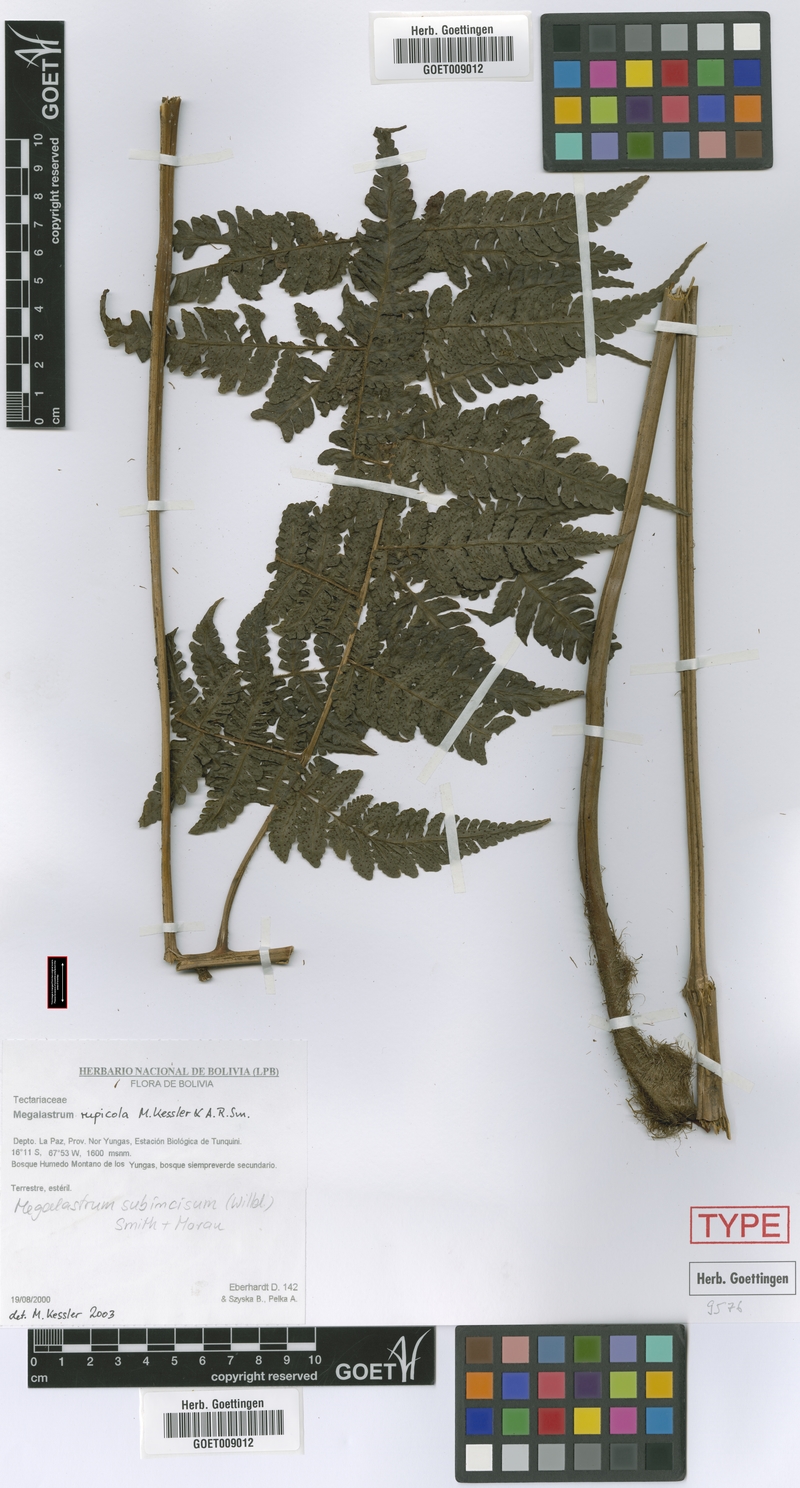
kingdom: Plantae
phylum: Tracheophyta
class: Polypodiopsida
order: Polypodiales
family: Dryopteridaceae
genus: Megalastrum
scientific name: Megalastrum rupicola
